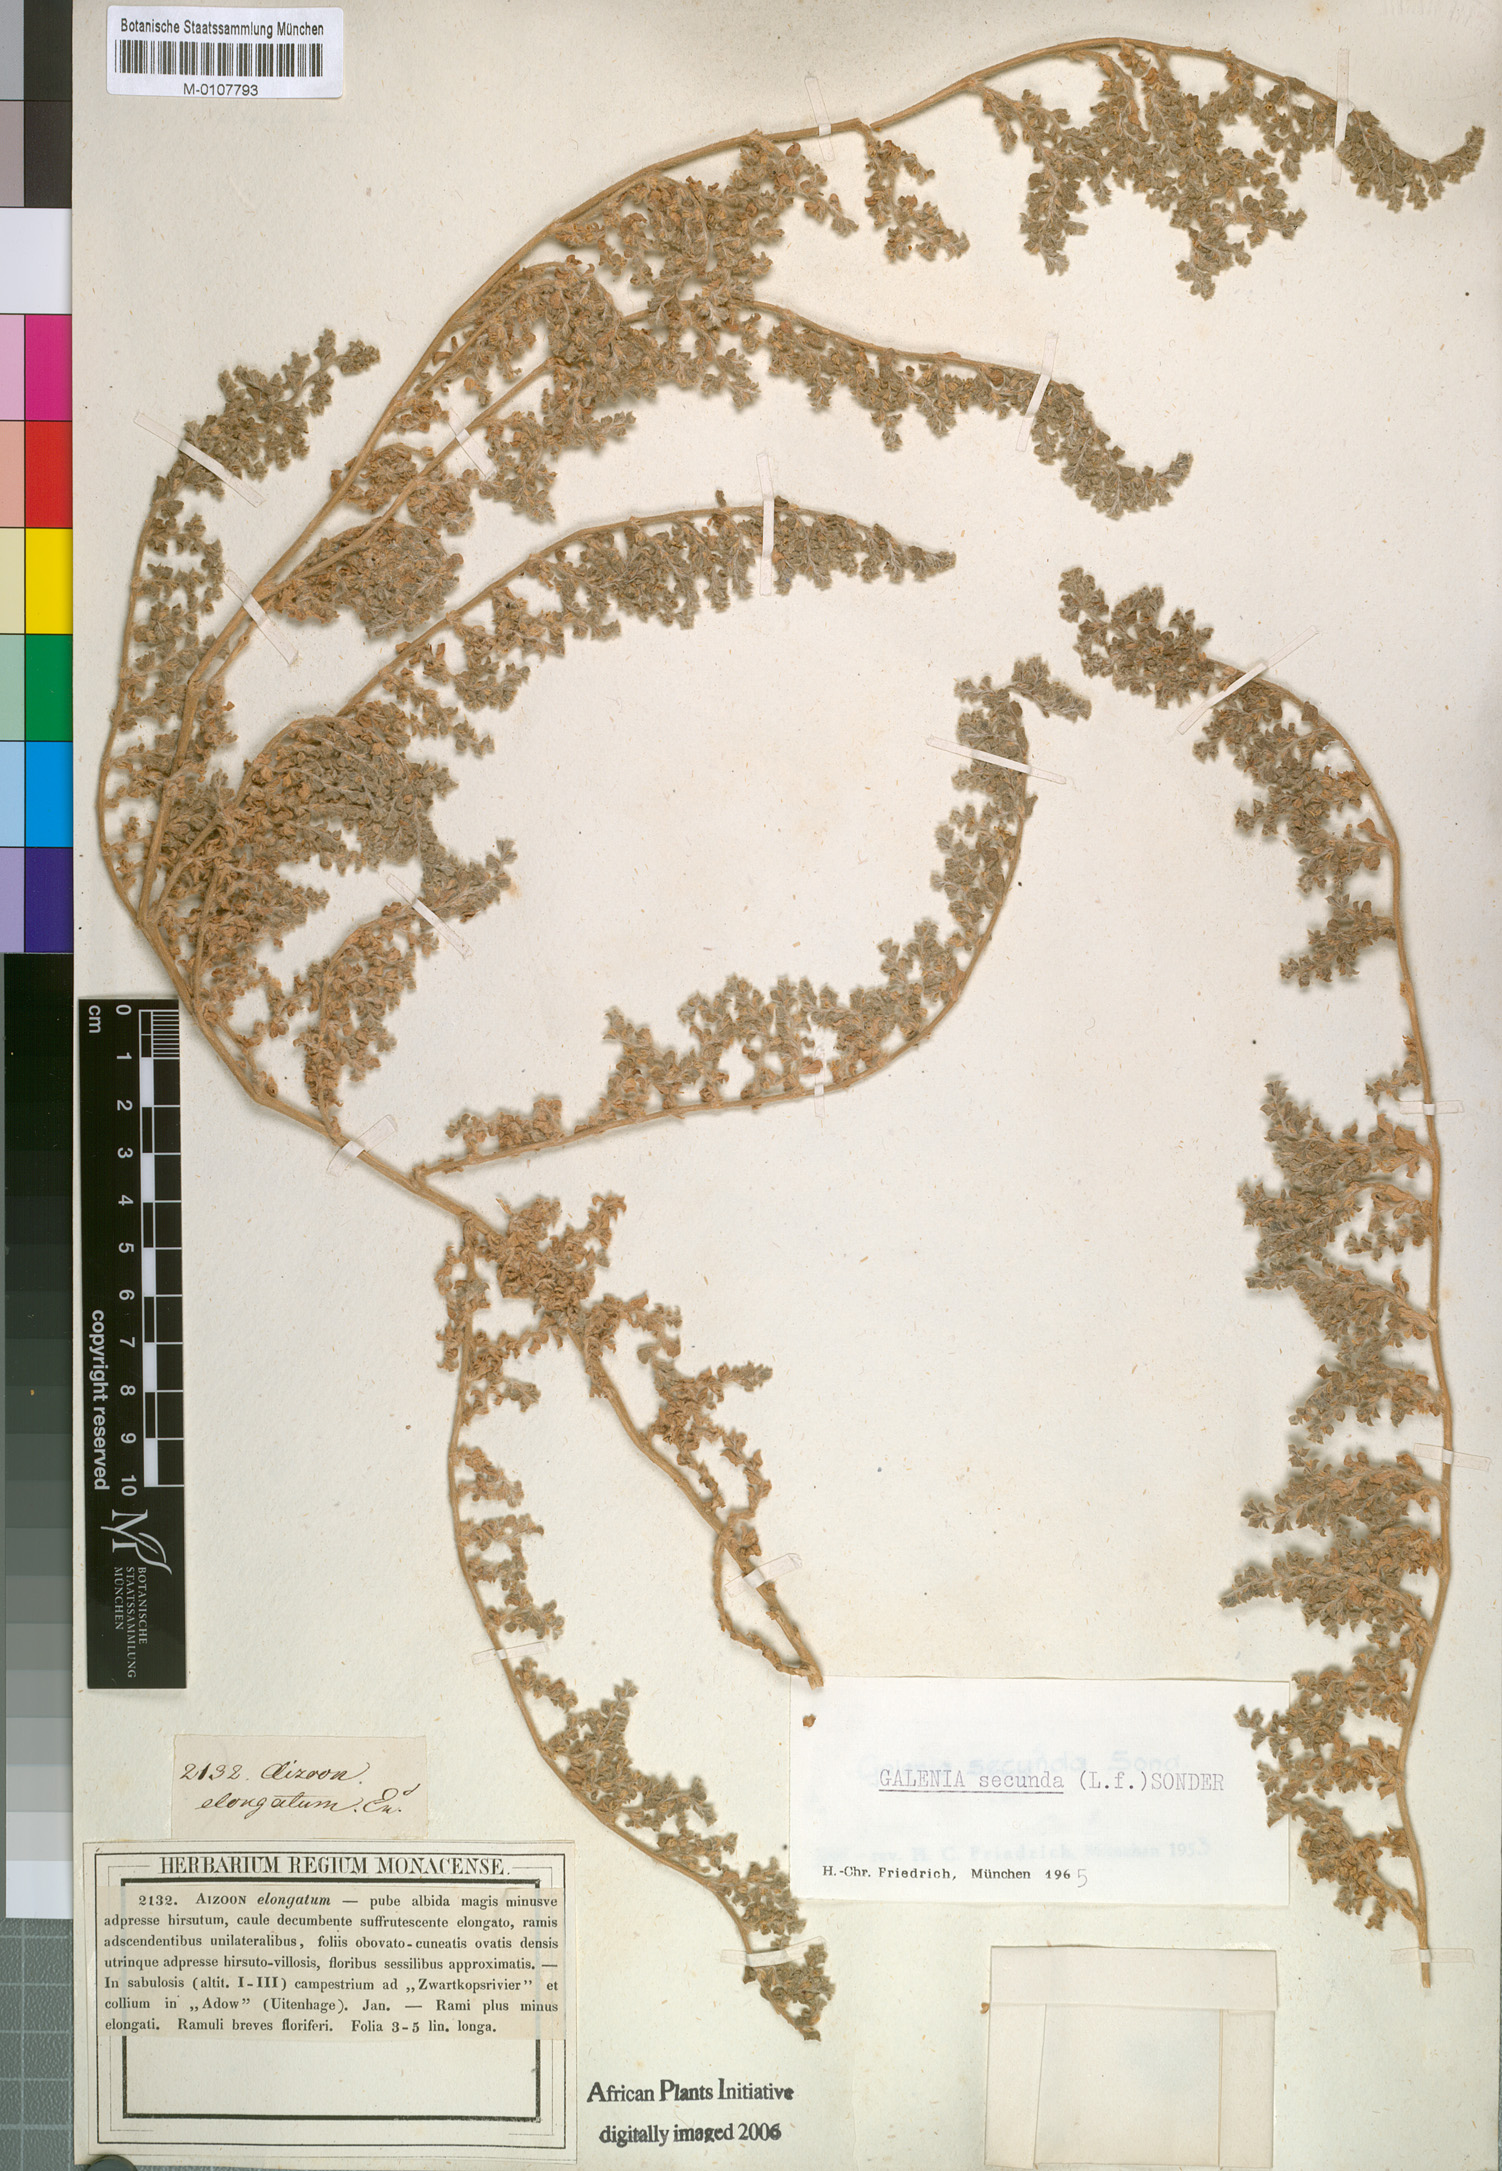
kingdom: Plantae
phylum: Tracheophyta
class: Magnoliopsida
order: Caryophyllales
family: Aizoaceae
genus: Aizoon
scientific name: Aizoon secundum
